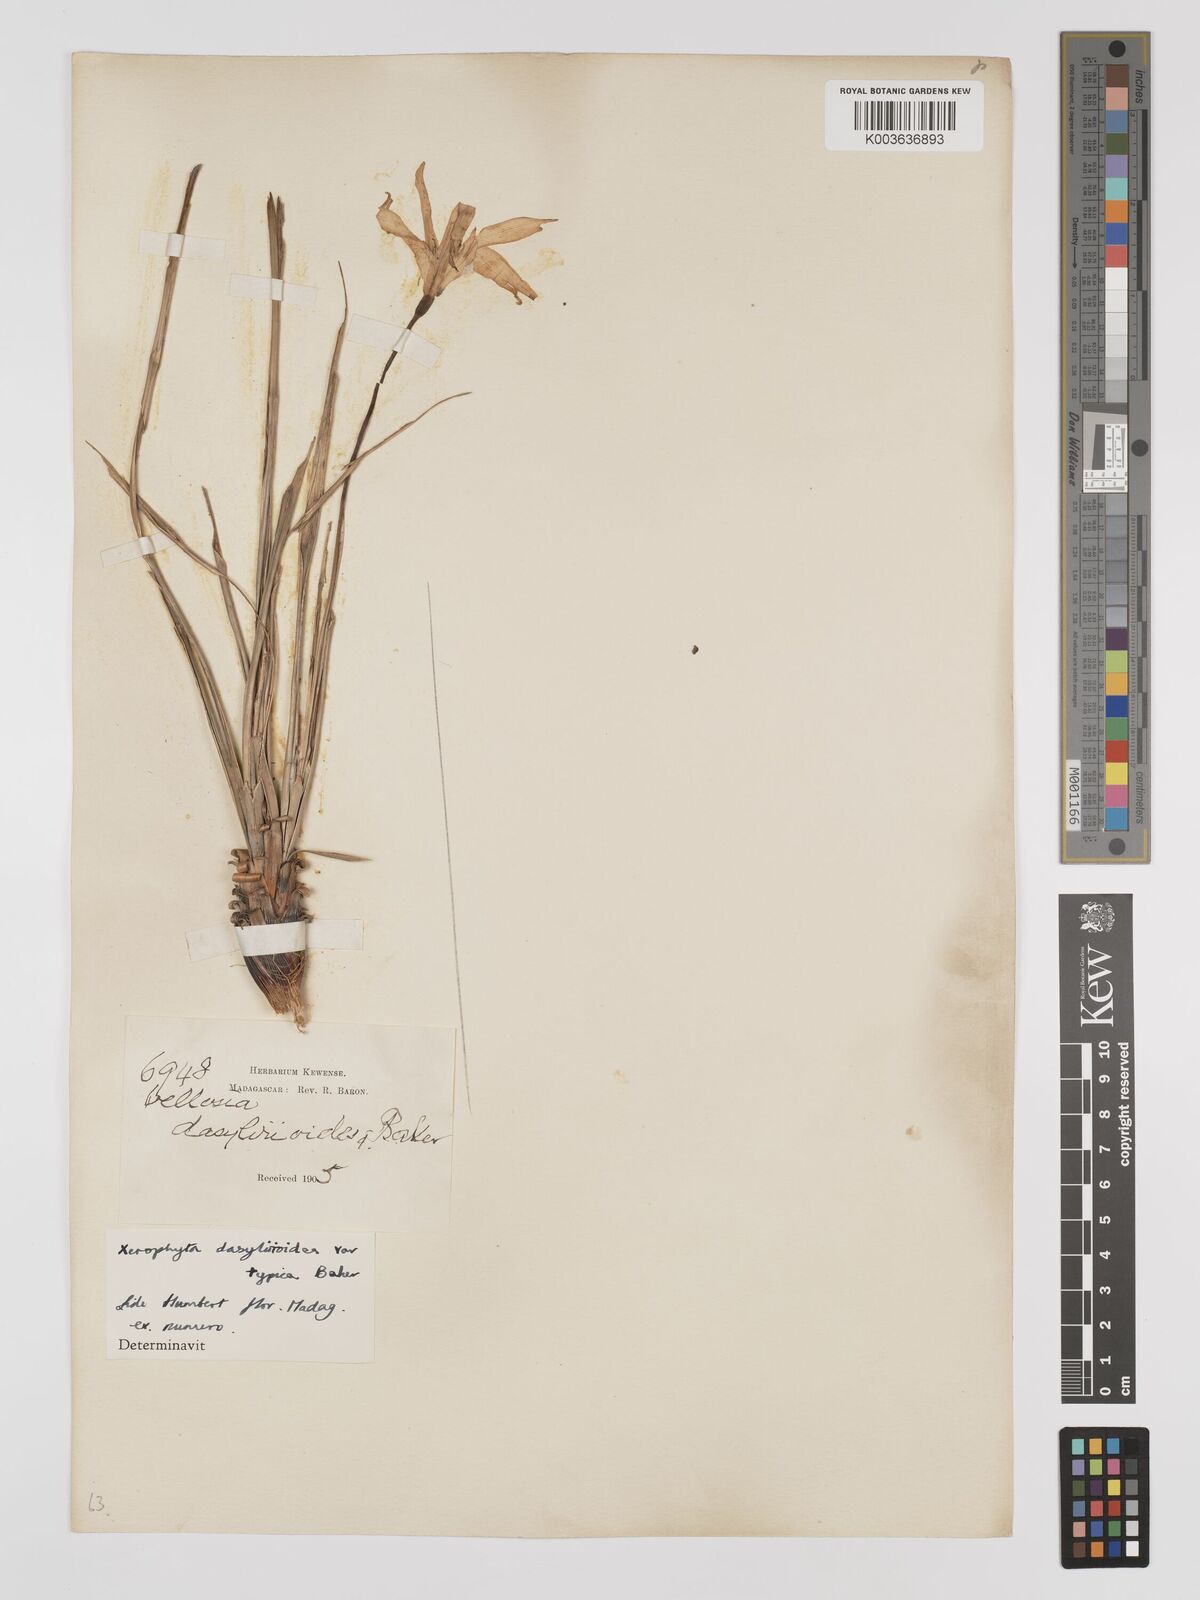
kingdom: Plantae
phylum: Tracheophyta
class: Liliopsida
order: Pandanales
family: Velloziaceae
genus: Xerophyta
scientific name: Xerophyta dasylirioides
